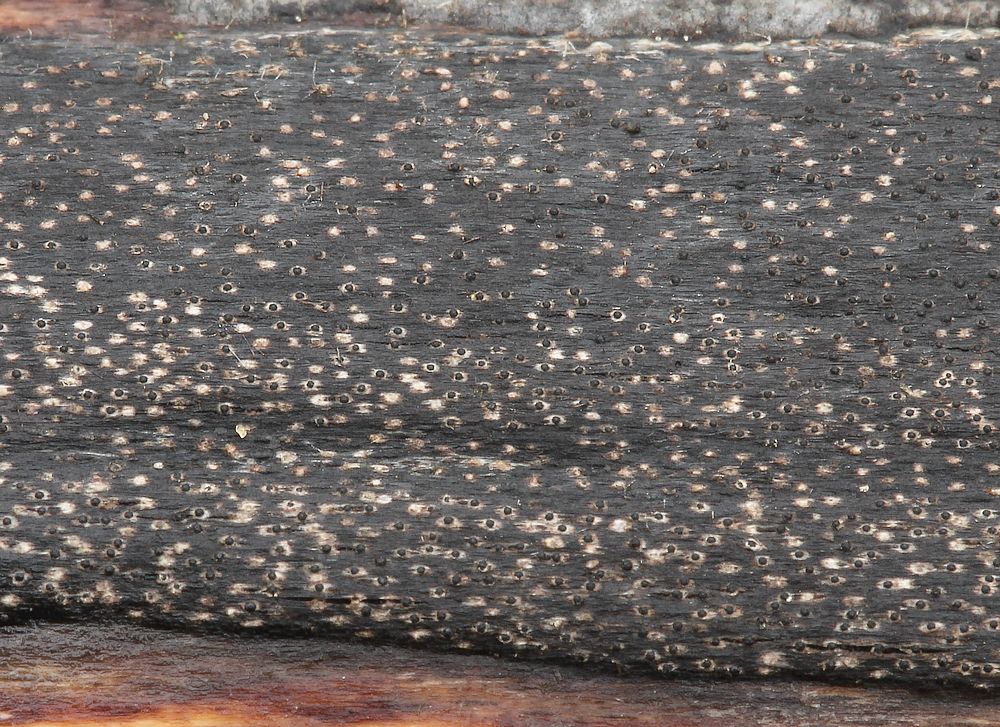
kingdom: Fungi
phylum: Ascomycota
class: Sordariomycetes
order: Xylariales
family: Diatrypaceae
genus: Eutypa
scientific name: Eutypa maura
